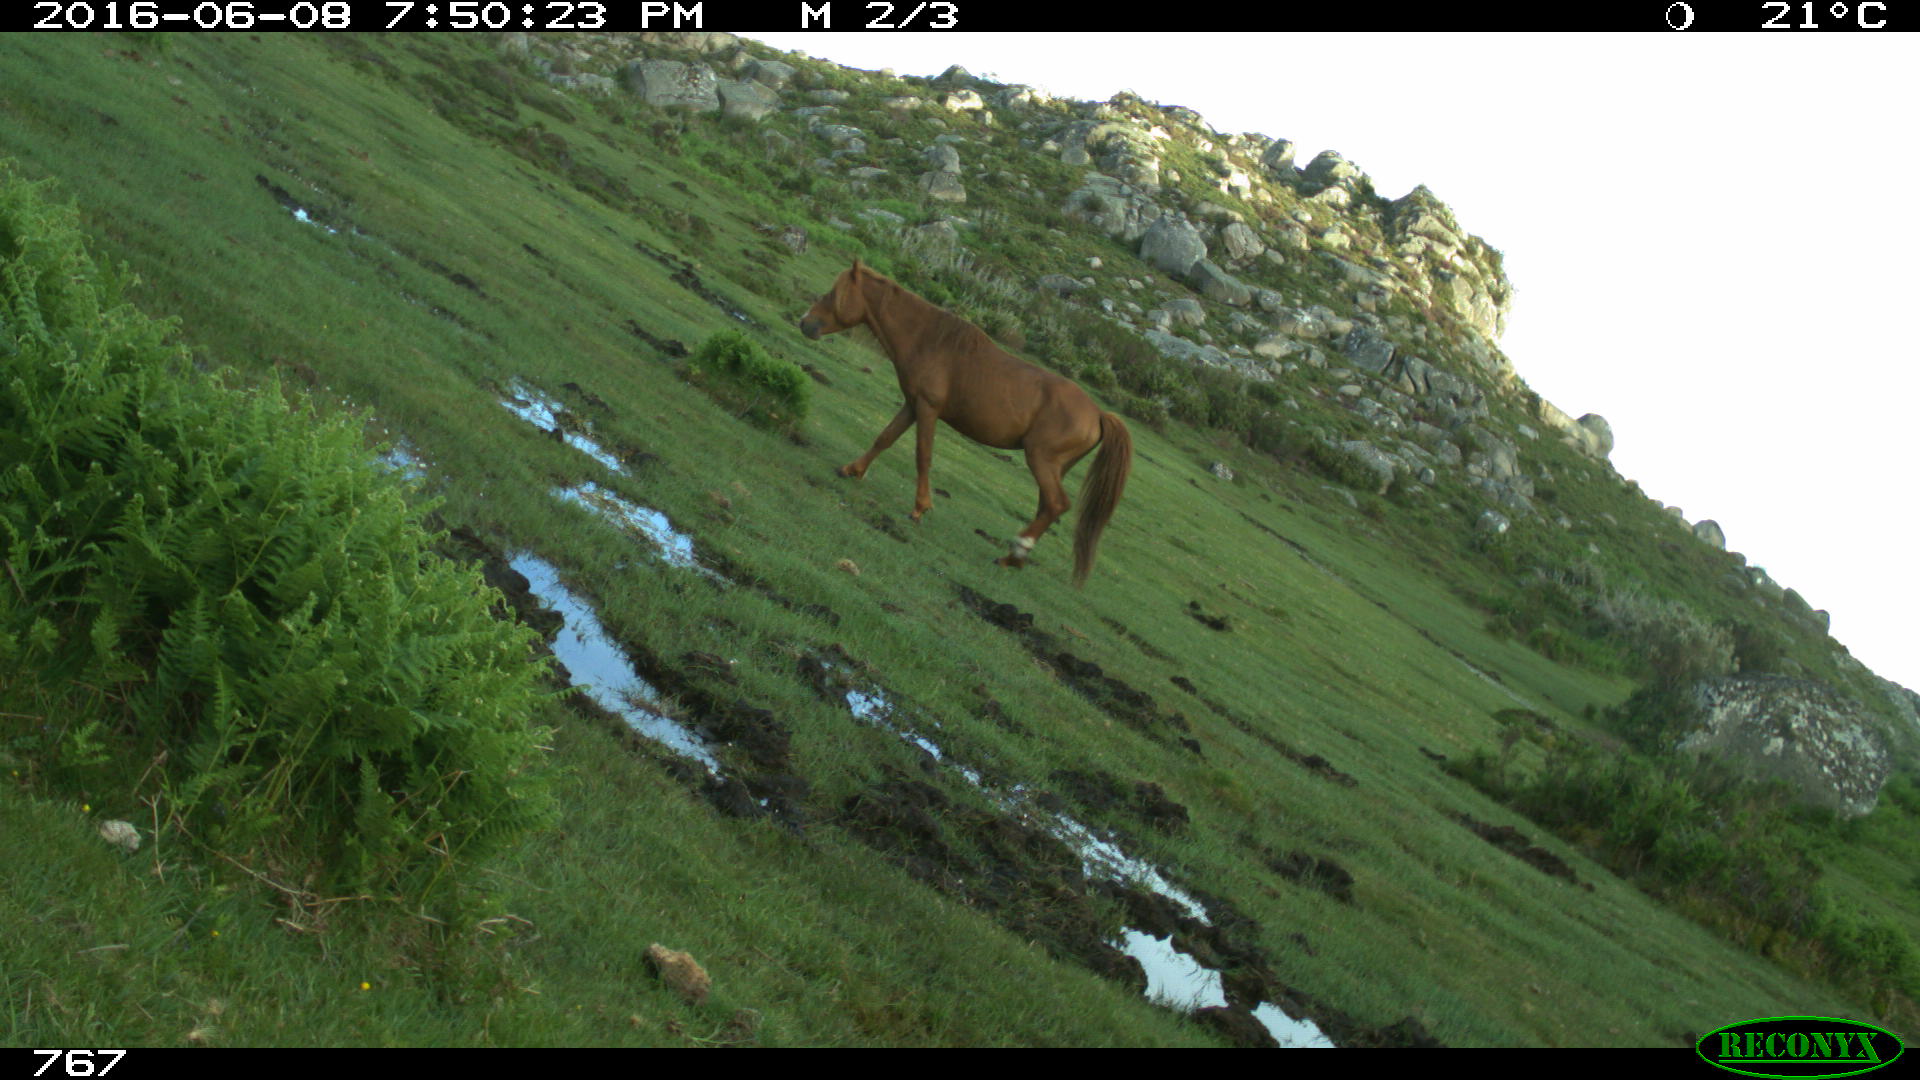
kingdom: Animalia
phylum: Chordata
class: Mammalia
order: Perissodactyla
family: Equidae
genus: Equus
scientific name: Equus caballus
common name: Horse
